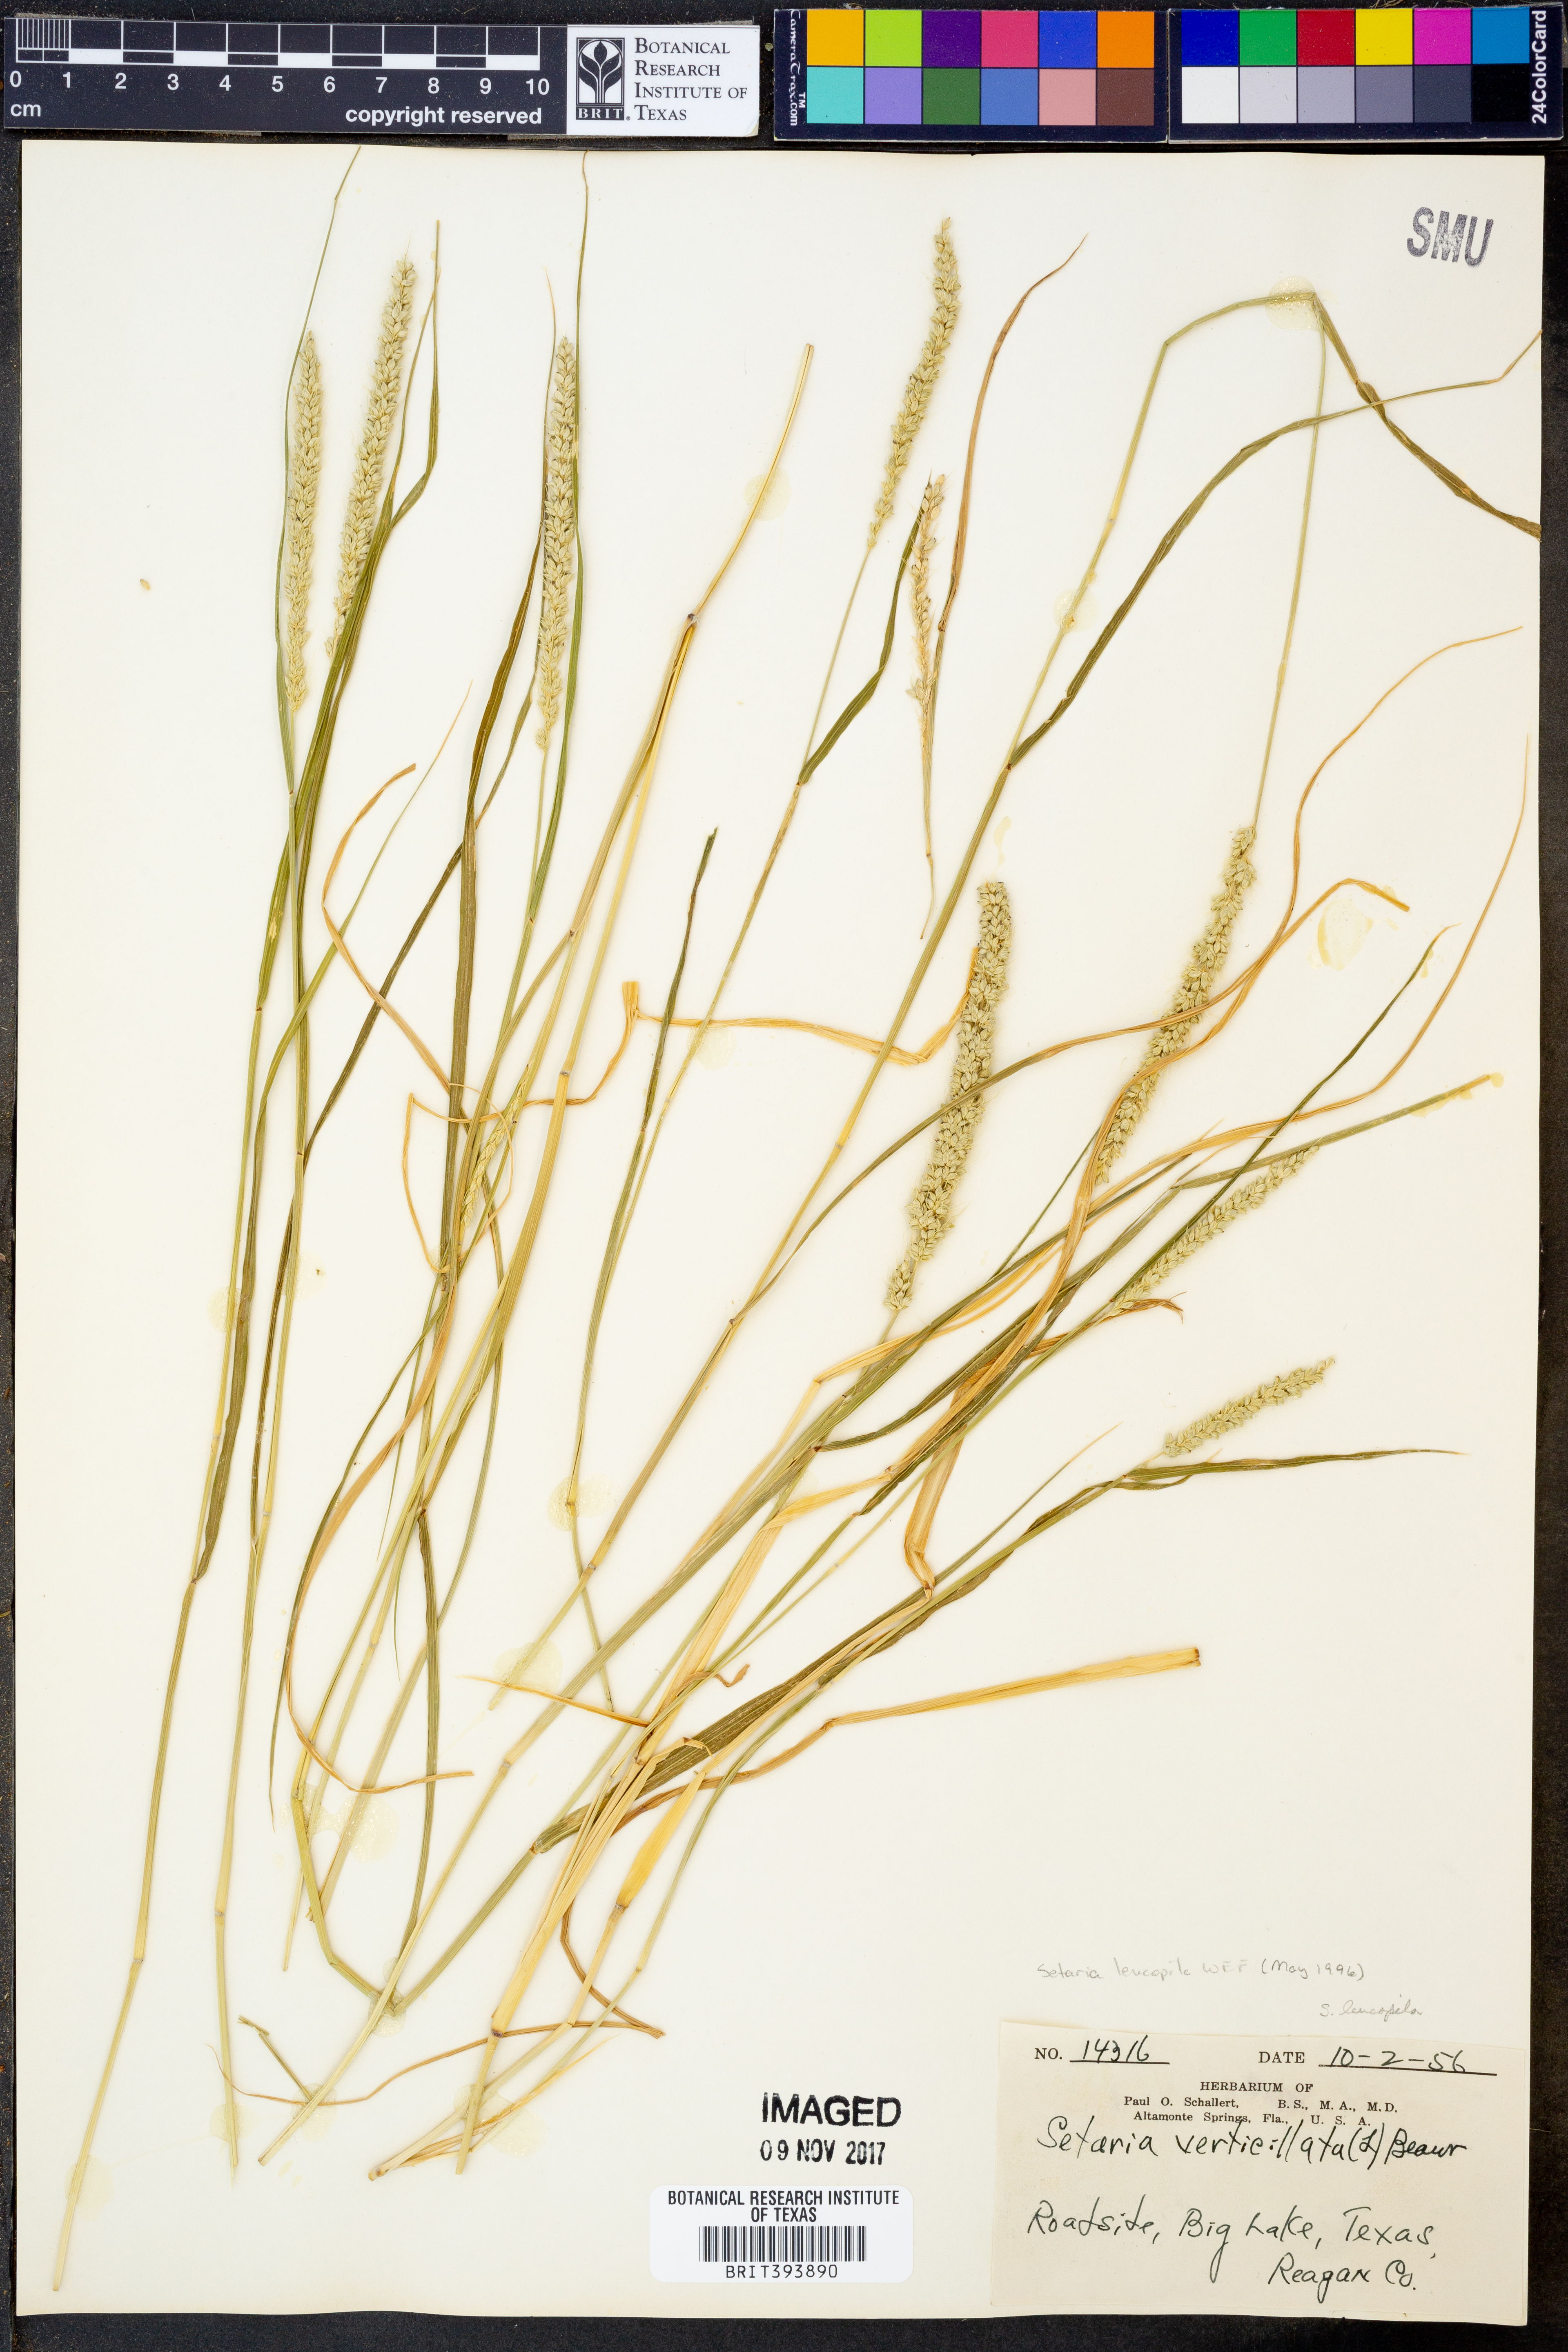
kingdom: Plantae
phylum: Tracheophyta
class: Liliopsida
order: Poales
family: Poaceae
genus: Setaria
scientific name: Setaria leucopila
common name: Plains bristle grass
